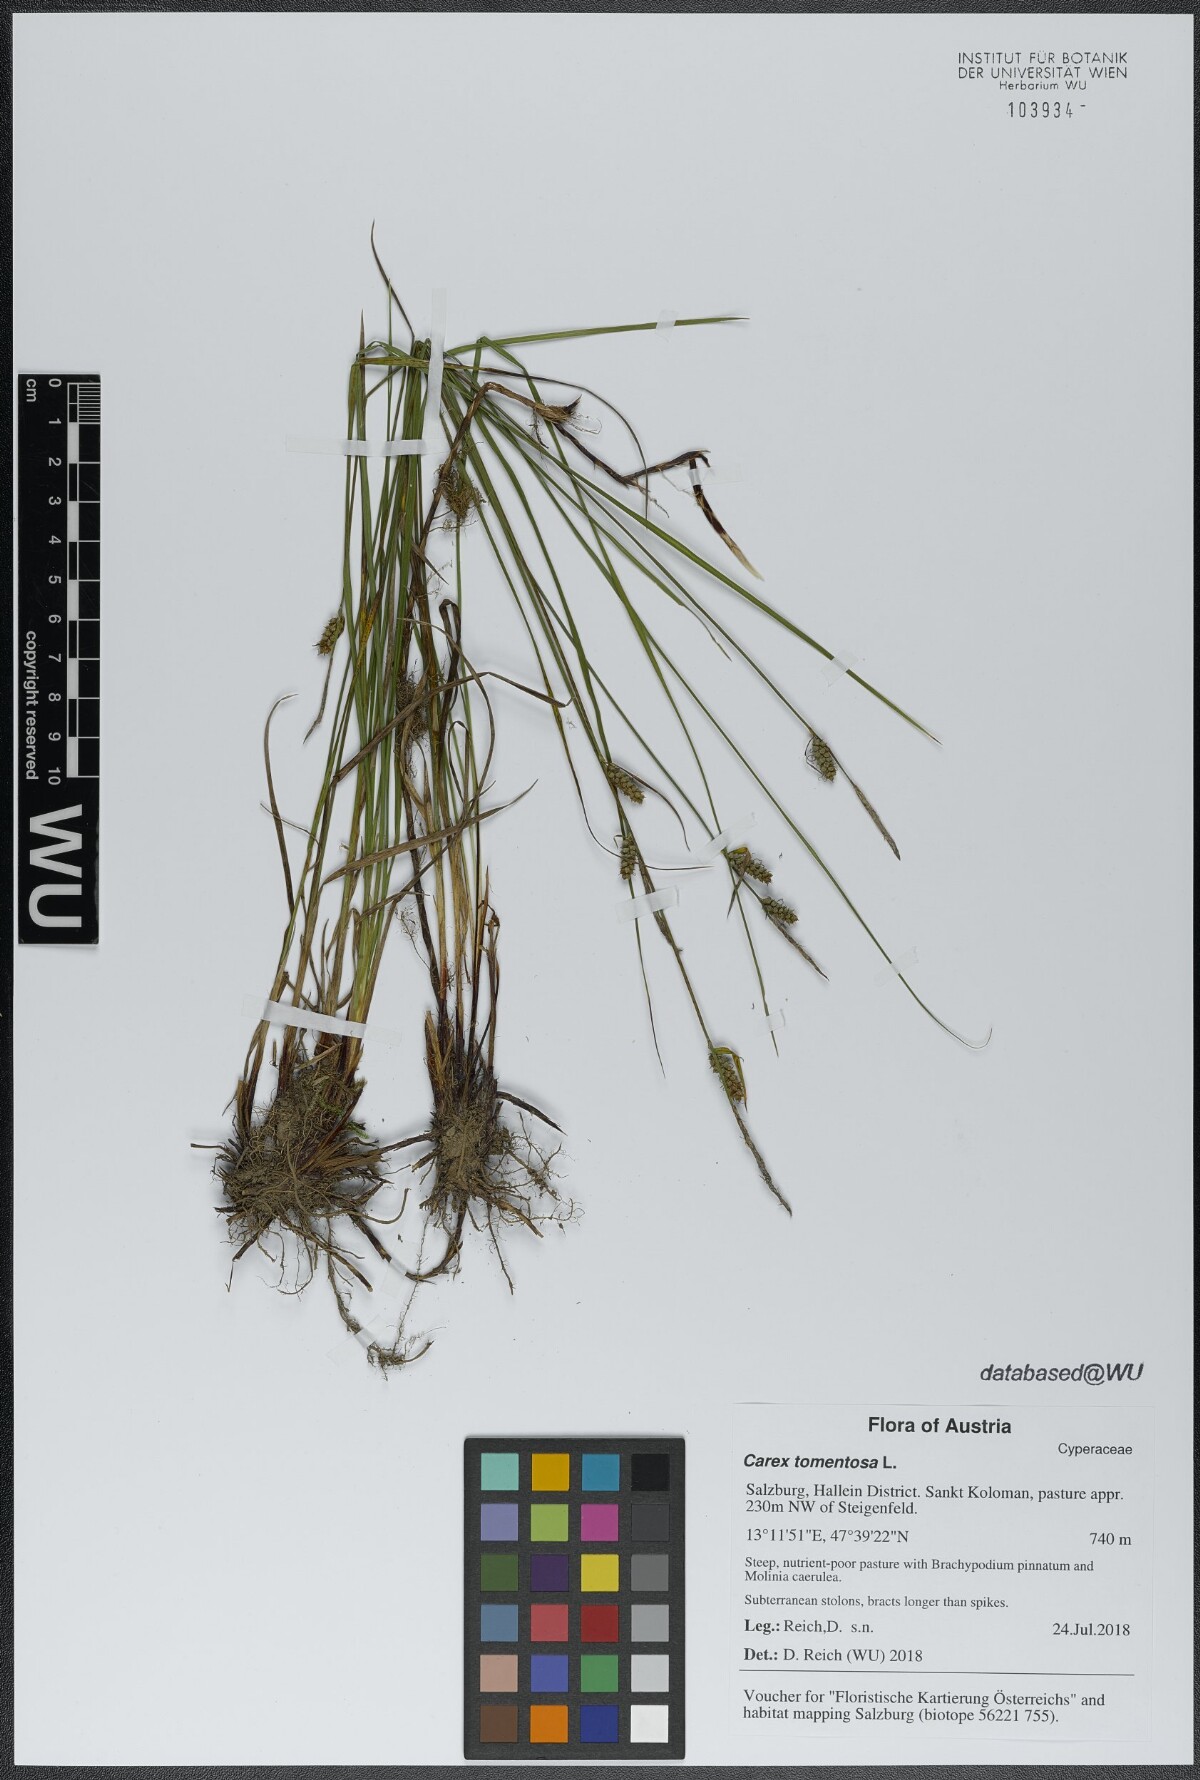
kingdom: Plantae
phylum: Tracheophyta
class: Liliopsida
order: Poales
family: Cyperaceae
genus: Carex
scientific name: Carex tomentosa
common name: Downy-fruited sedge
